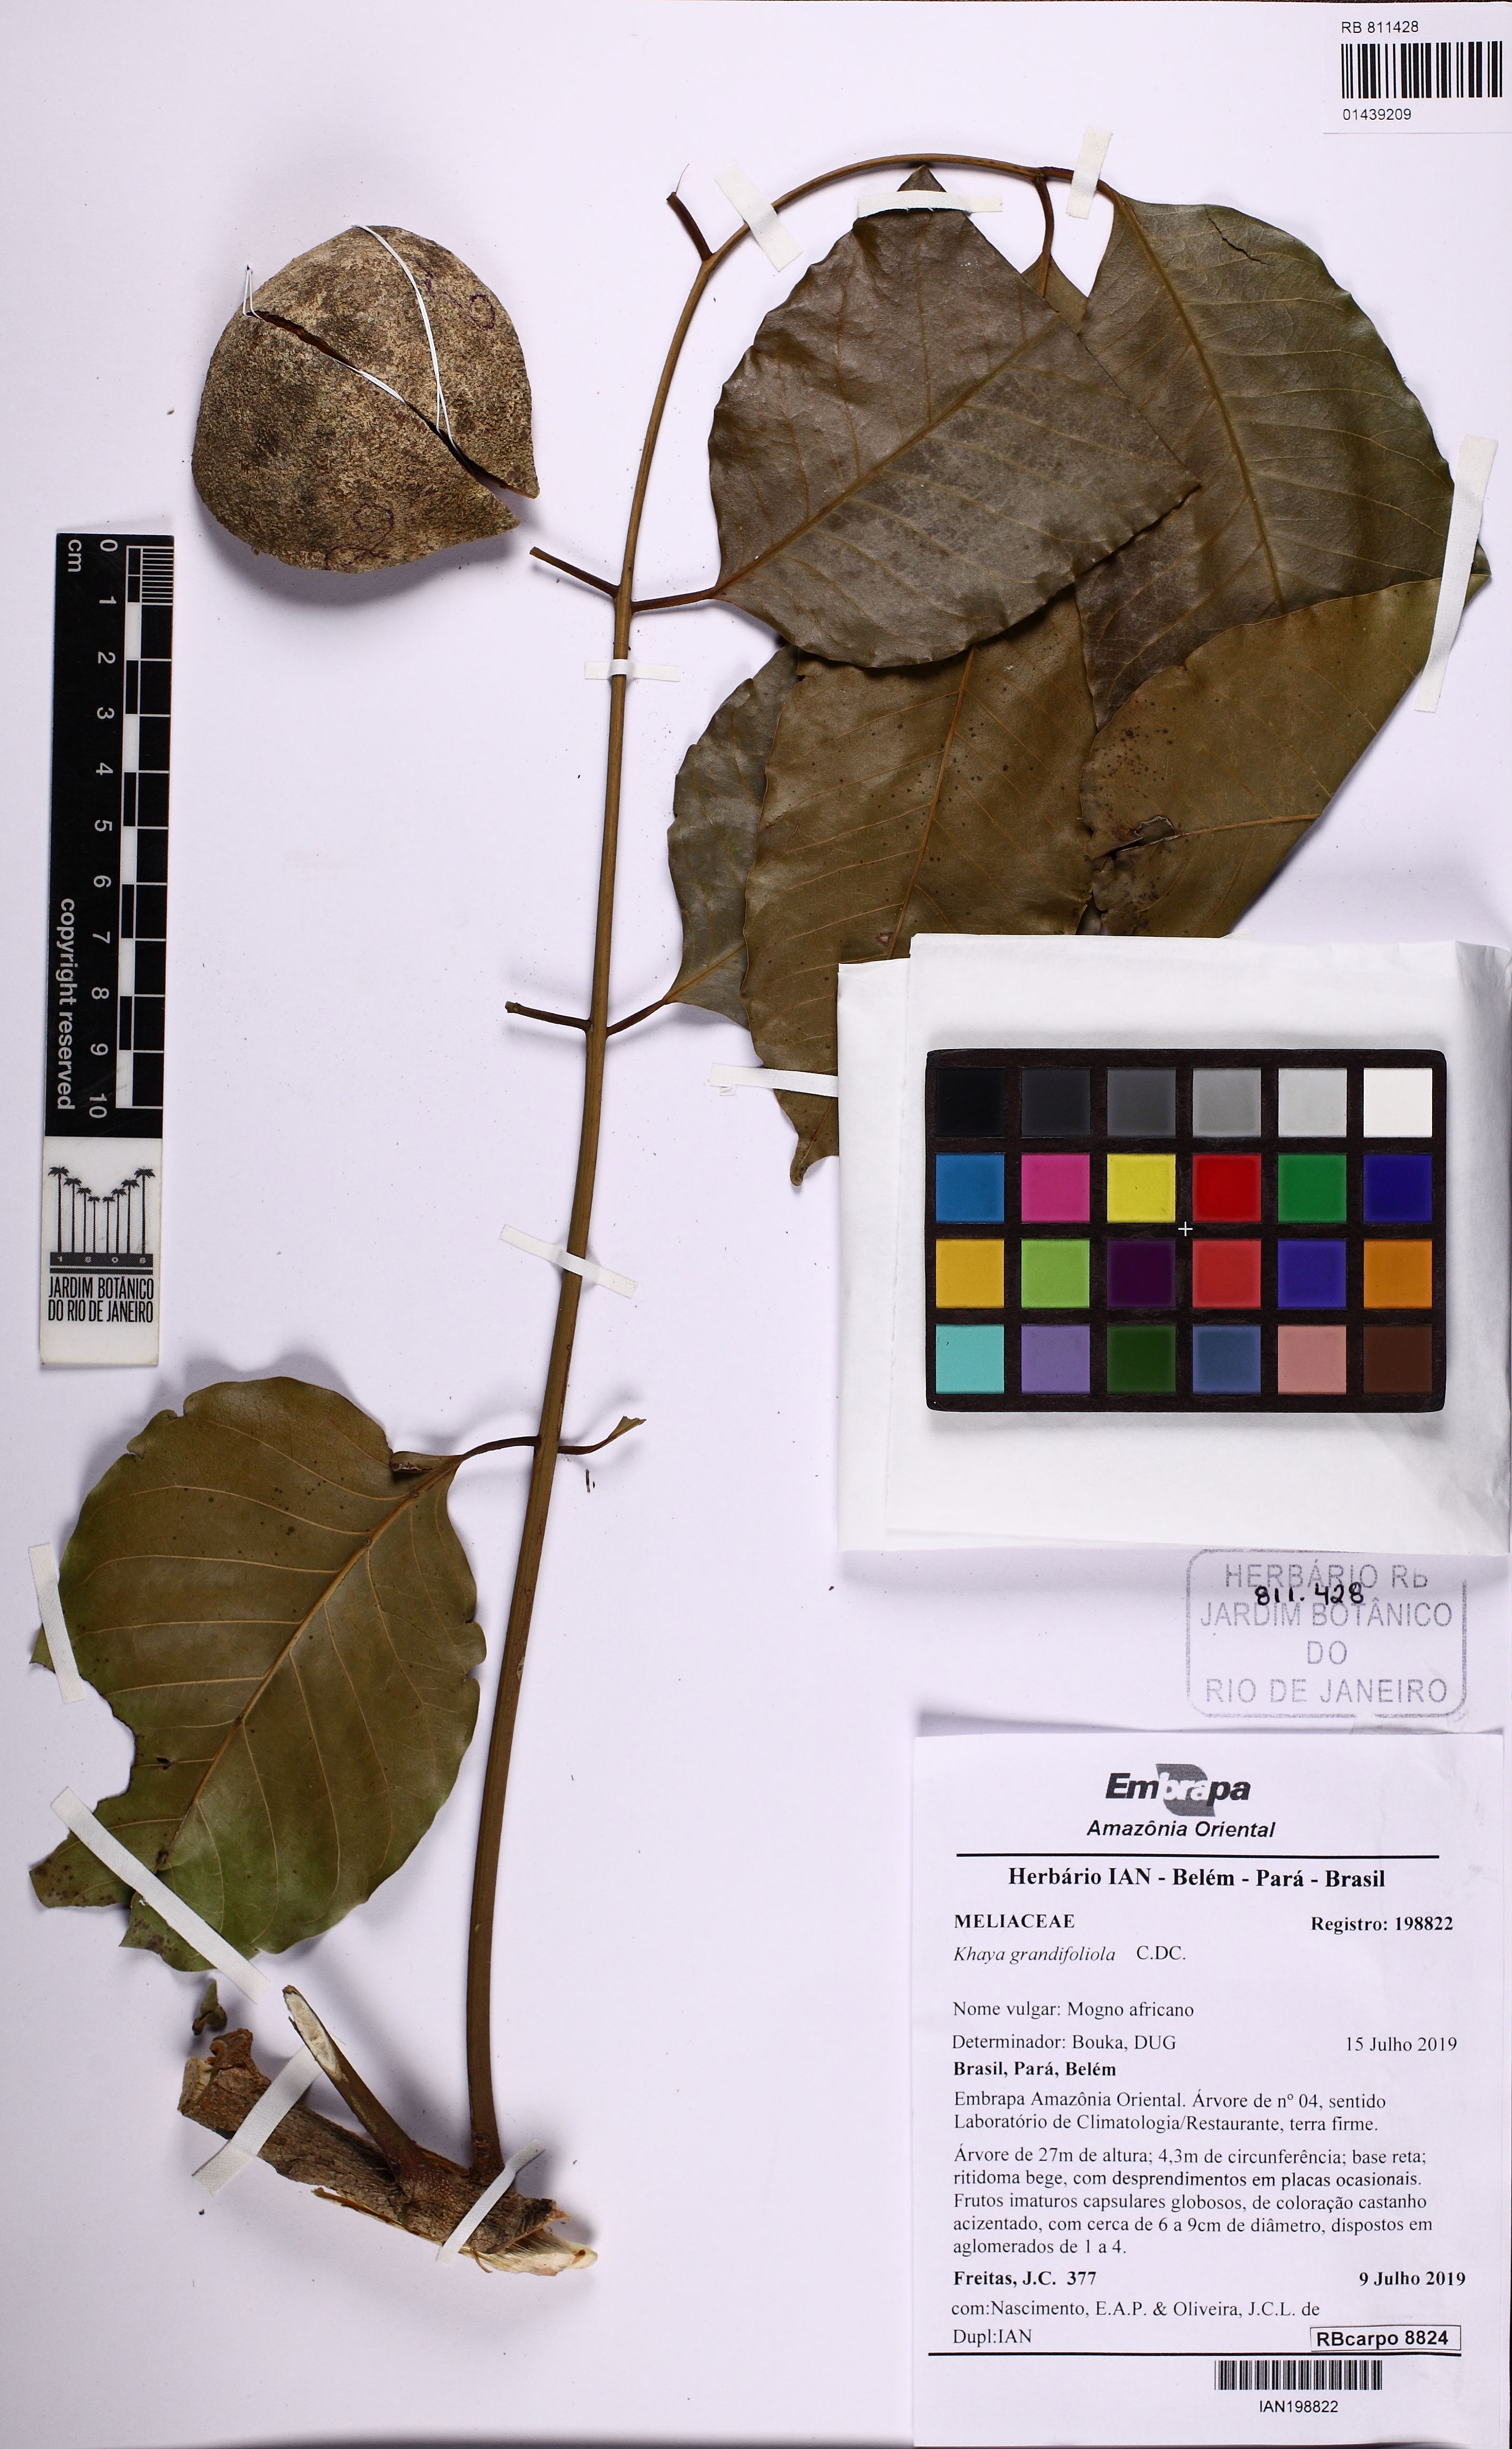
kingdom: Plantae
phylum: Tracheophyta
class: Magnoliopsida
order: Sapindales
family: Meliaceae
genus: Khaya
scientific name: Khaya grandifoliola
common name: African mahogany
